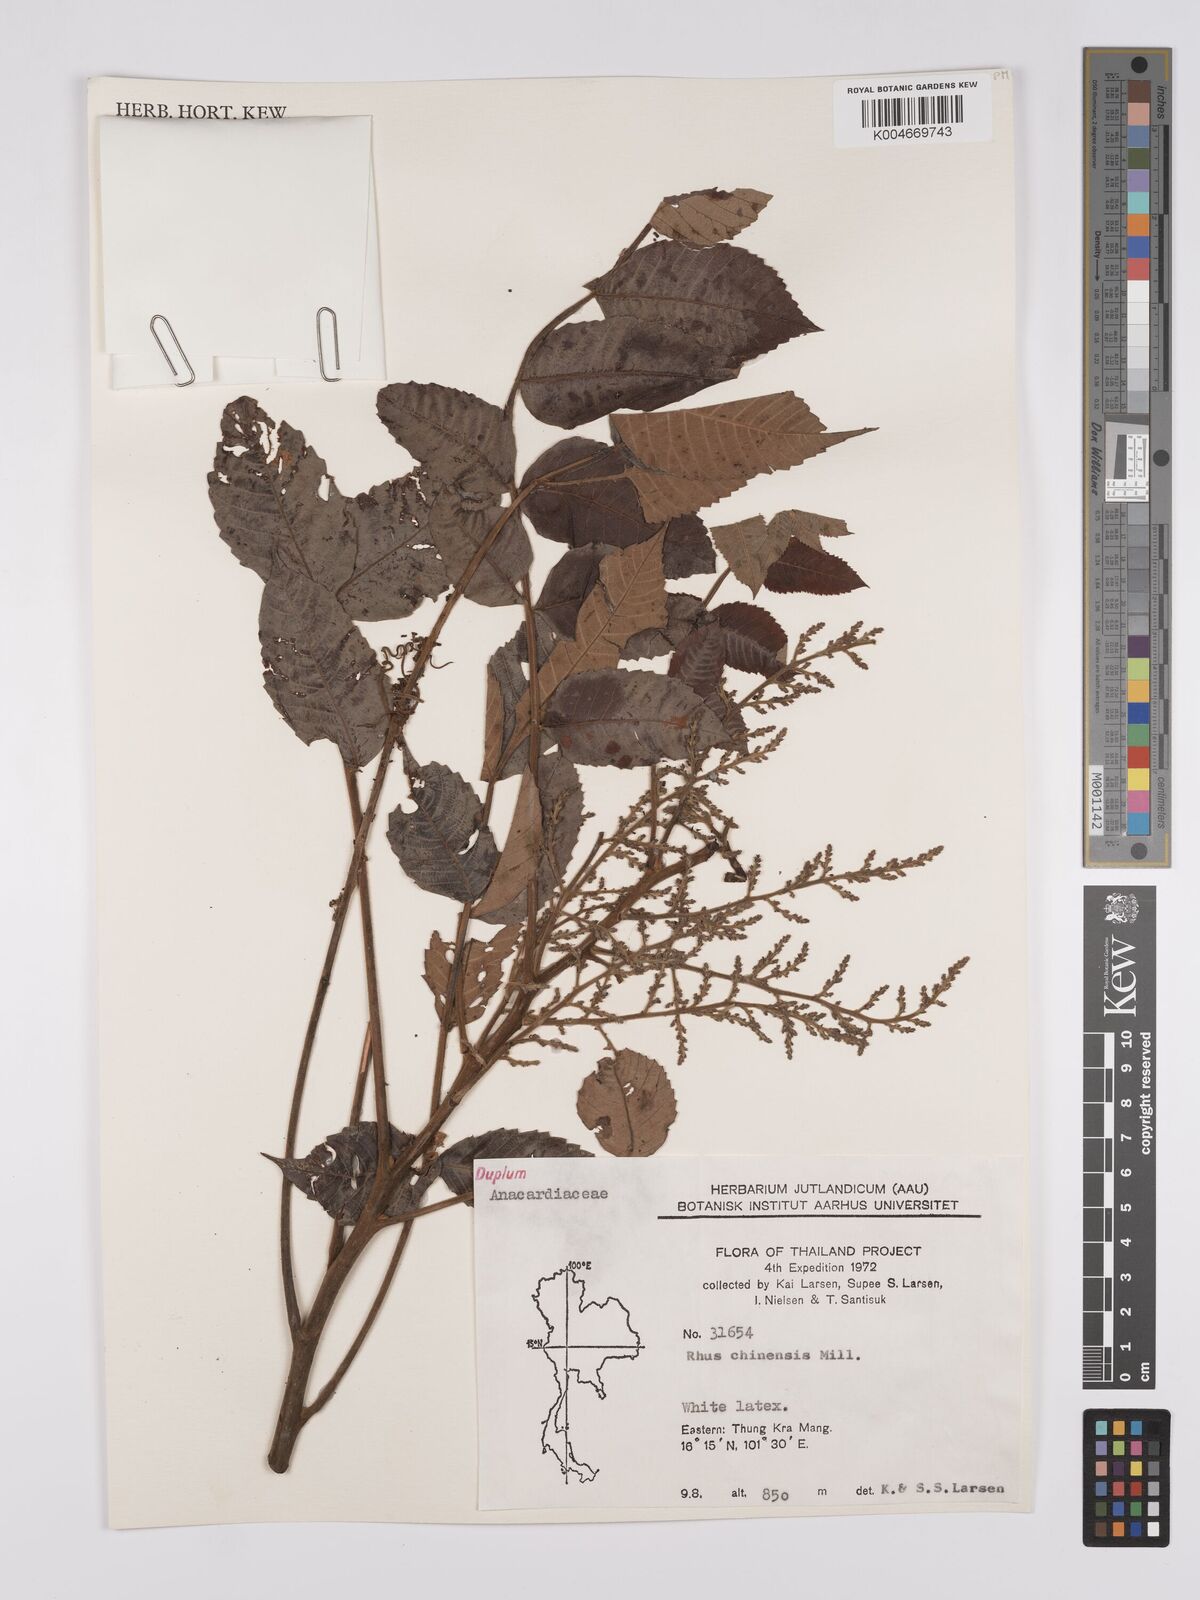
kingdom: Plantae
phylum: Tracheophyta
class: Magnoliopsida
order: Sapindales
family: Anacardiaceae
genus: Rhus
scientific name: Rhus chinensis
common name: Chinese gall
